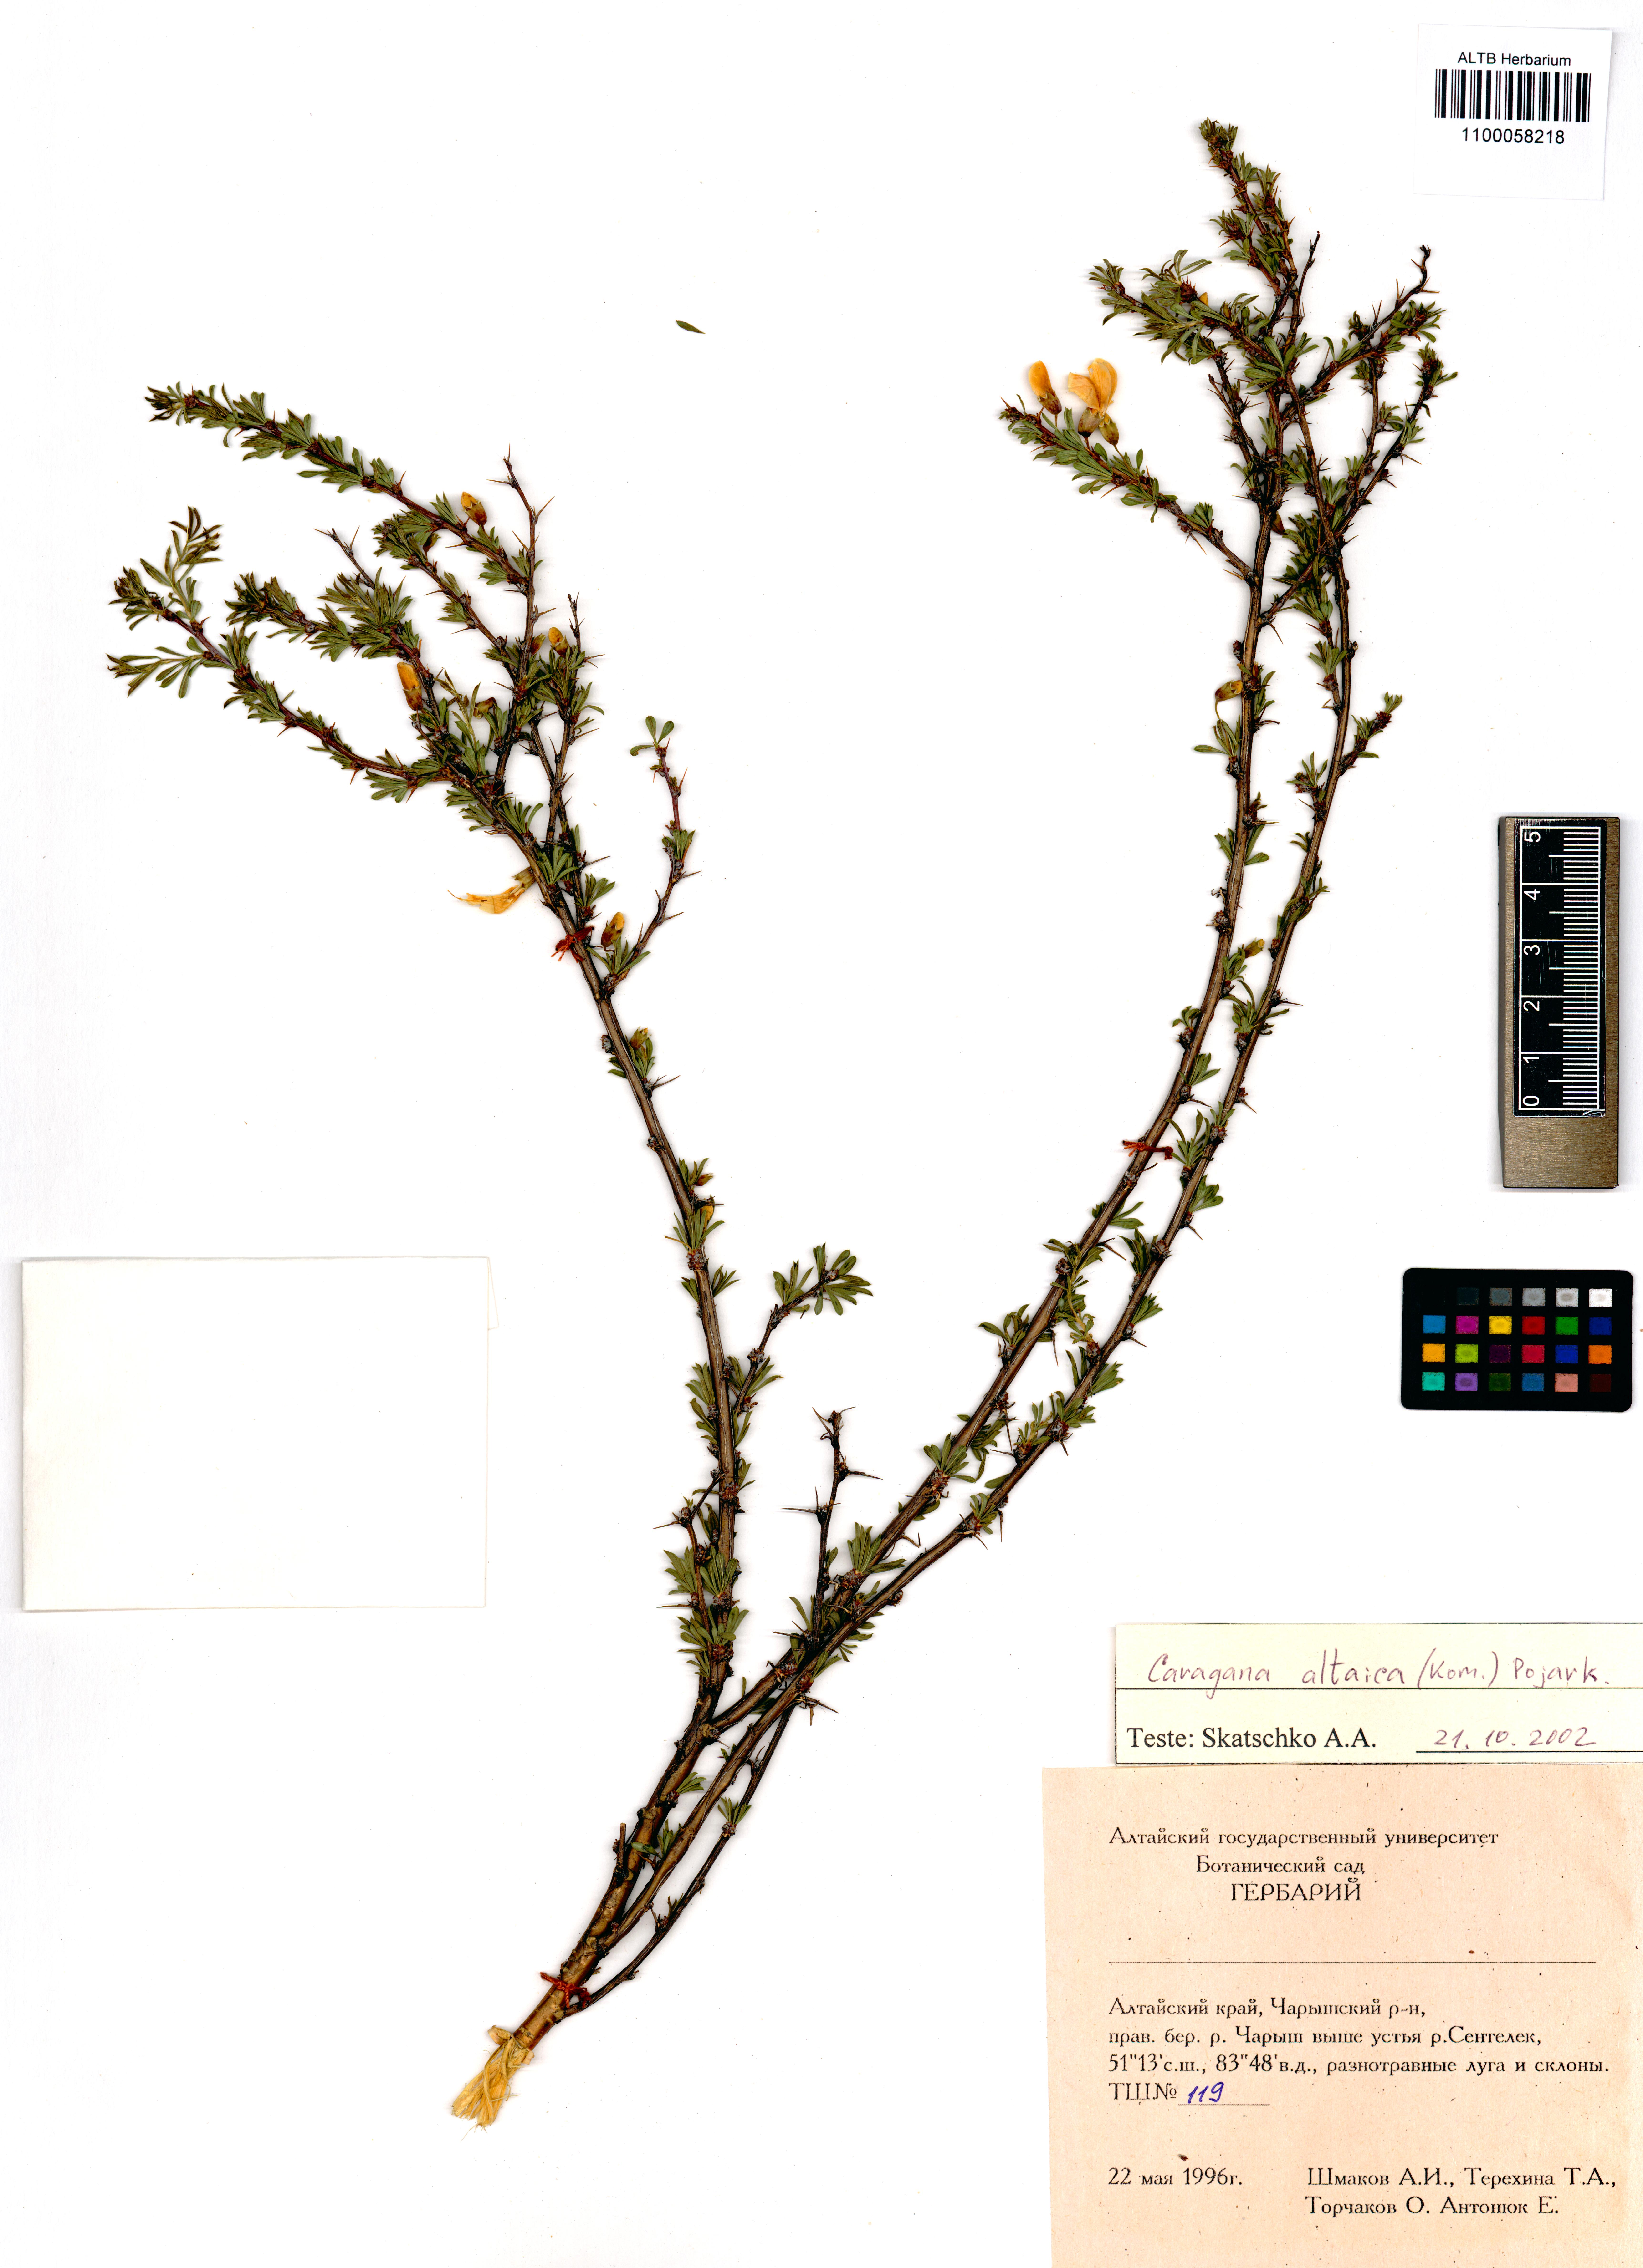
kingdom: Plantae
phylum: Tracheophyta
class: Magnoliopsida
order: Fabales
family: Fabaceae
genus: Caragana
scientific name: Caragana pygmaea
